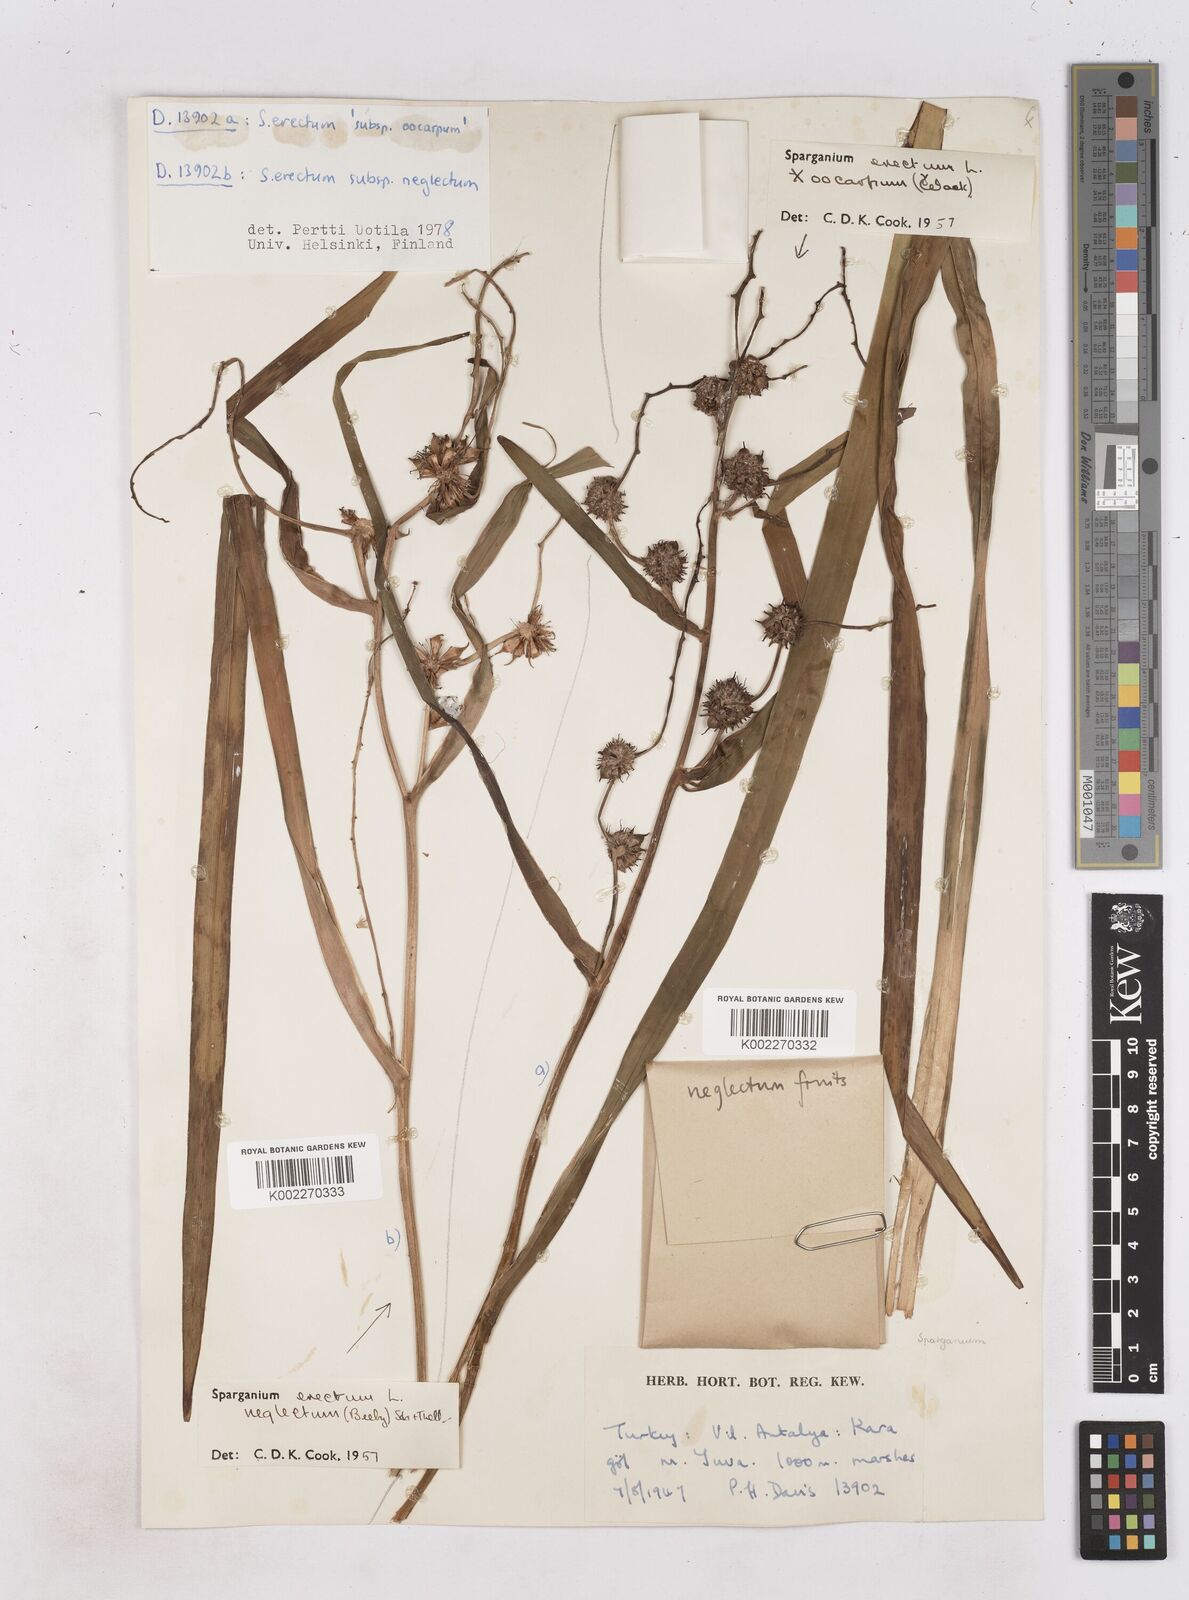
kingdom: Plantae
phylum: Tracheophyta
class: Liliopsida
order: Poales
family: Typhaceae
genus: Sparganium
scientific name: Sparganium erectum
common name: Branched bur-reed
